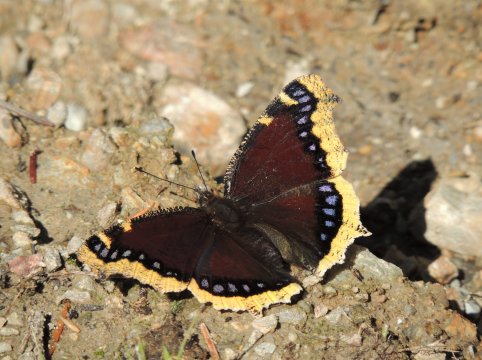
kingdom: Animalia
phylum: Arthropoda
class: Insecta
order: Lepidoptera
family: Nymphalidae
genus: Nymphalis
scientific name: Nymphalis antiopa
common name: Mourning Cloak
